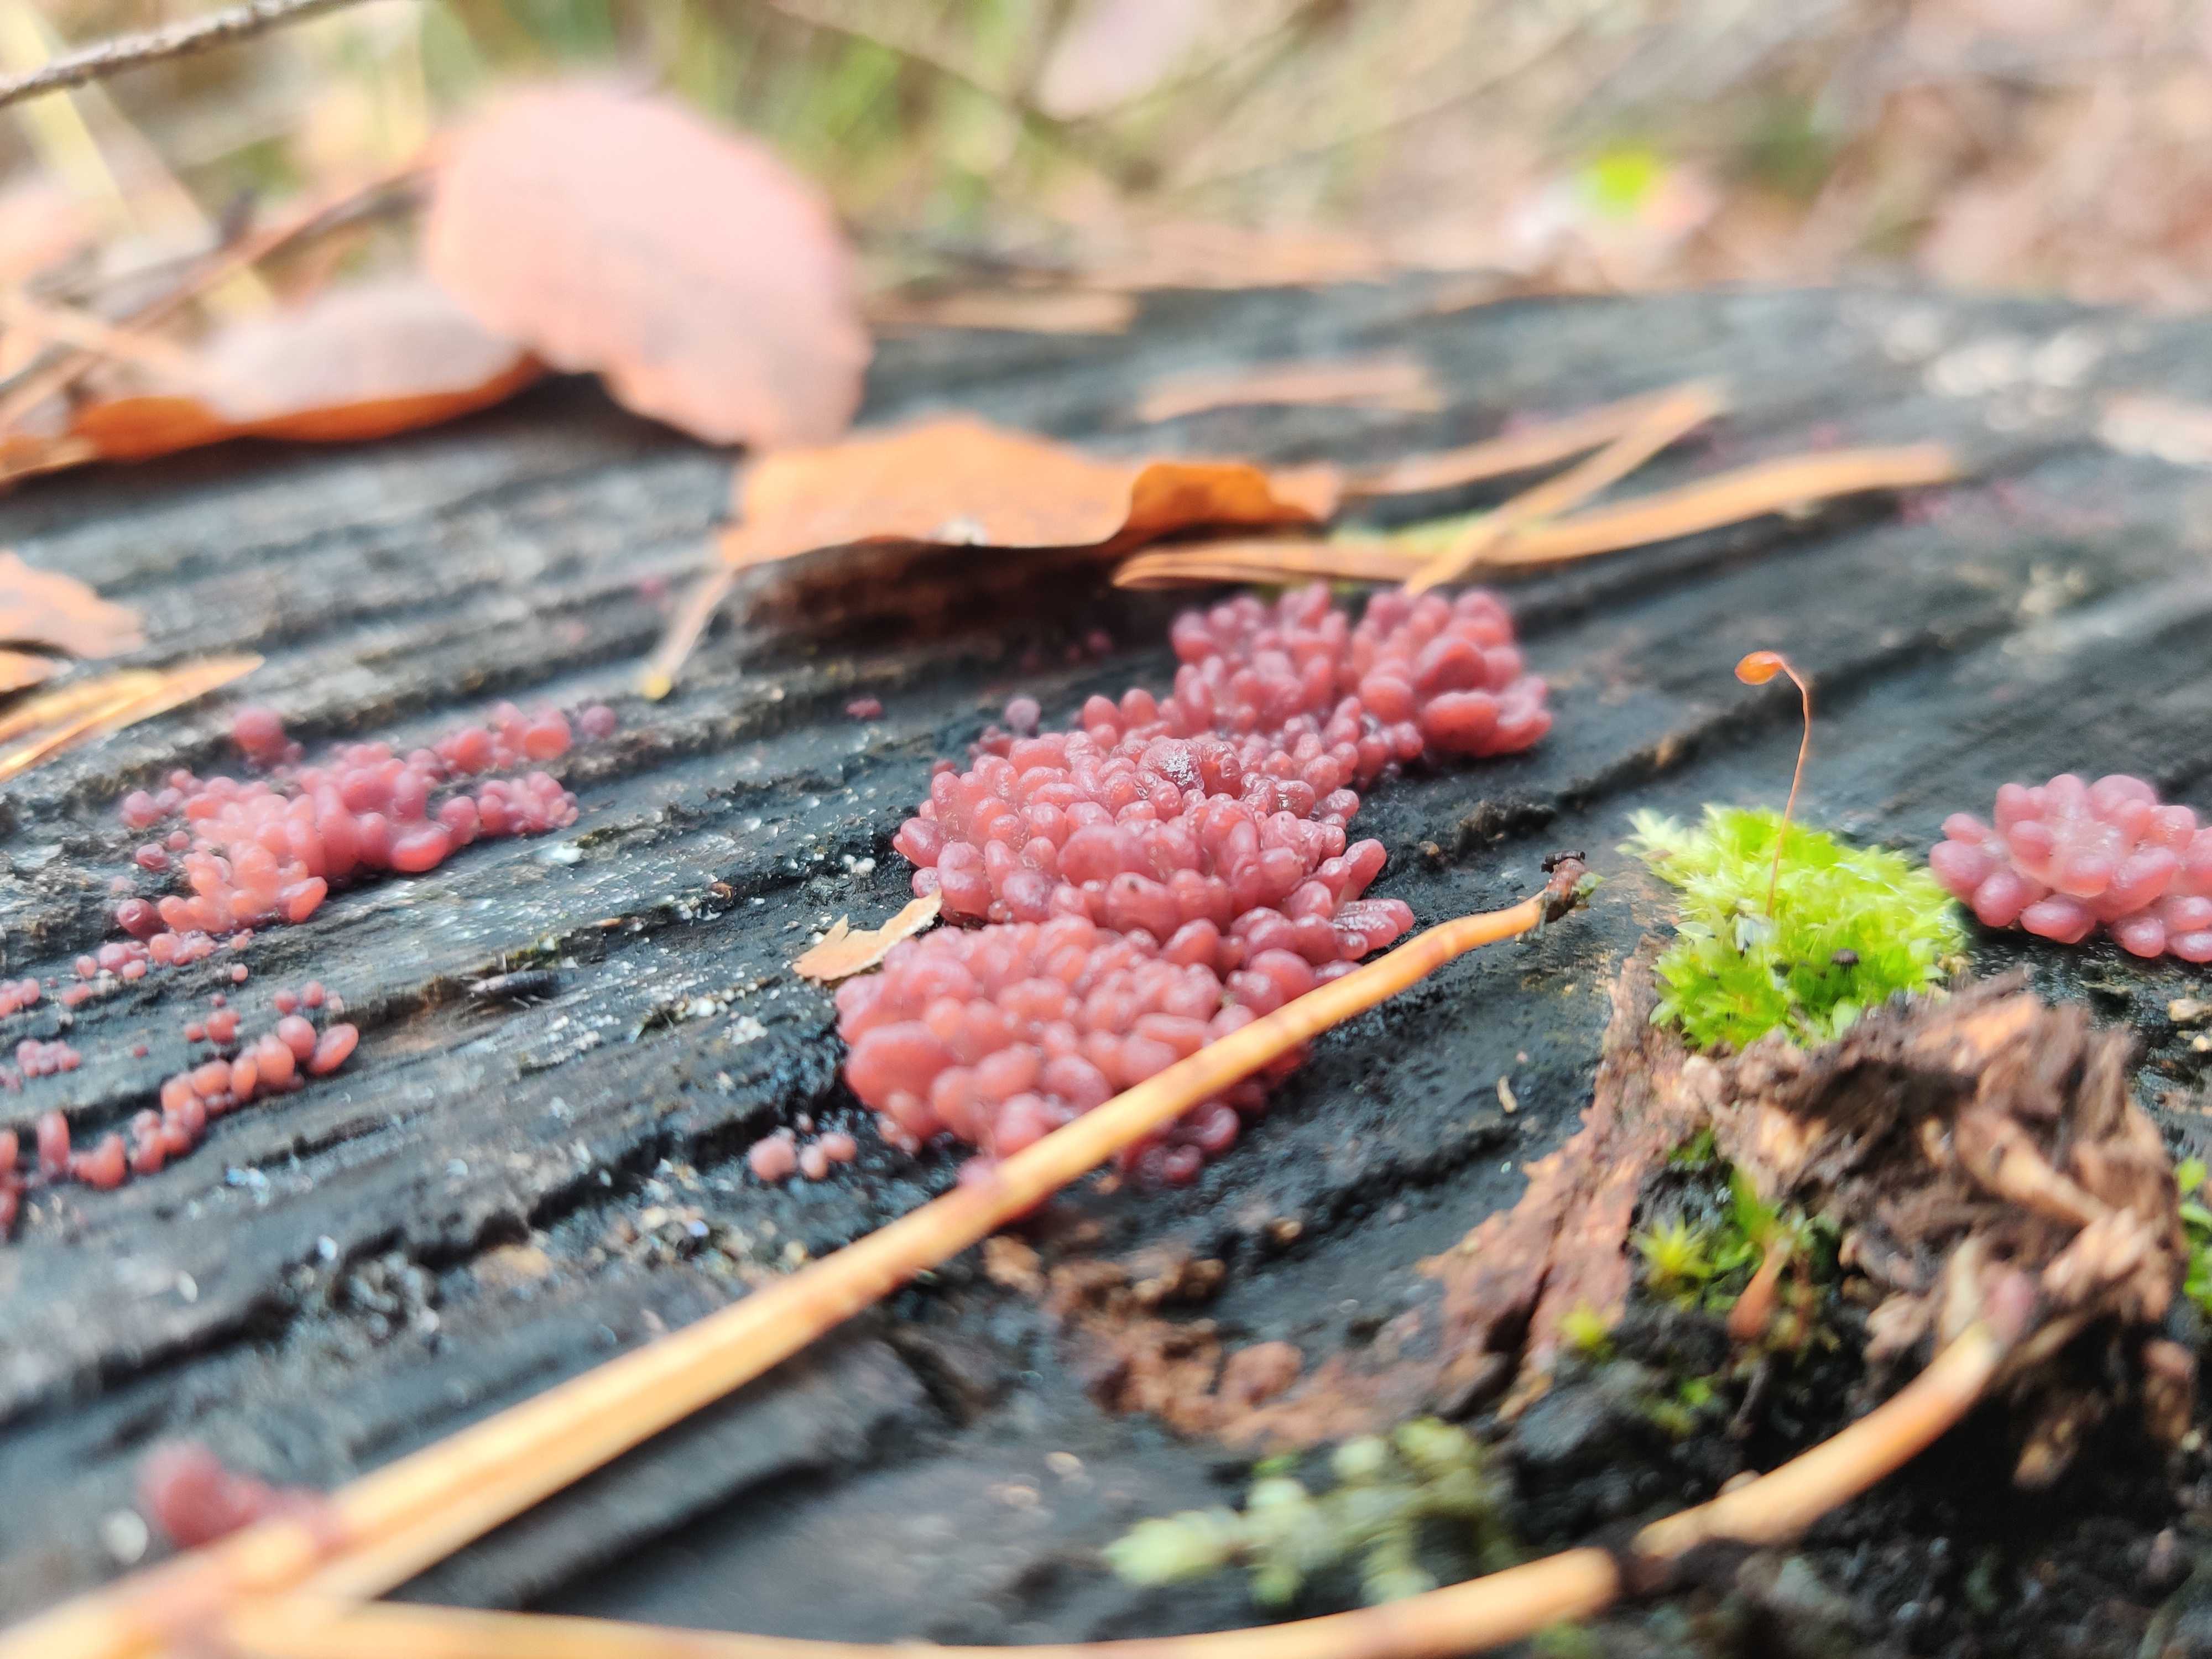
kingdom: Fungi
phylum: Ascomycota
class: Leotiomycetes
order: Helotiales
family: Gelatinodiscaceae
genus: Ascocoryne
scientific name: Ascocoryne sarcoides
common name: rødlilla sejskive
